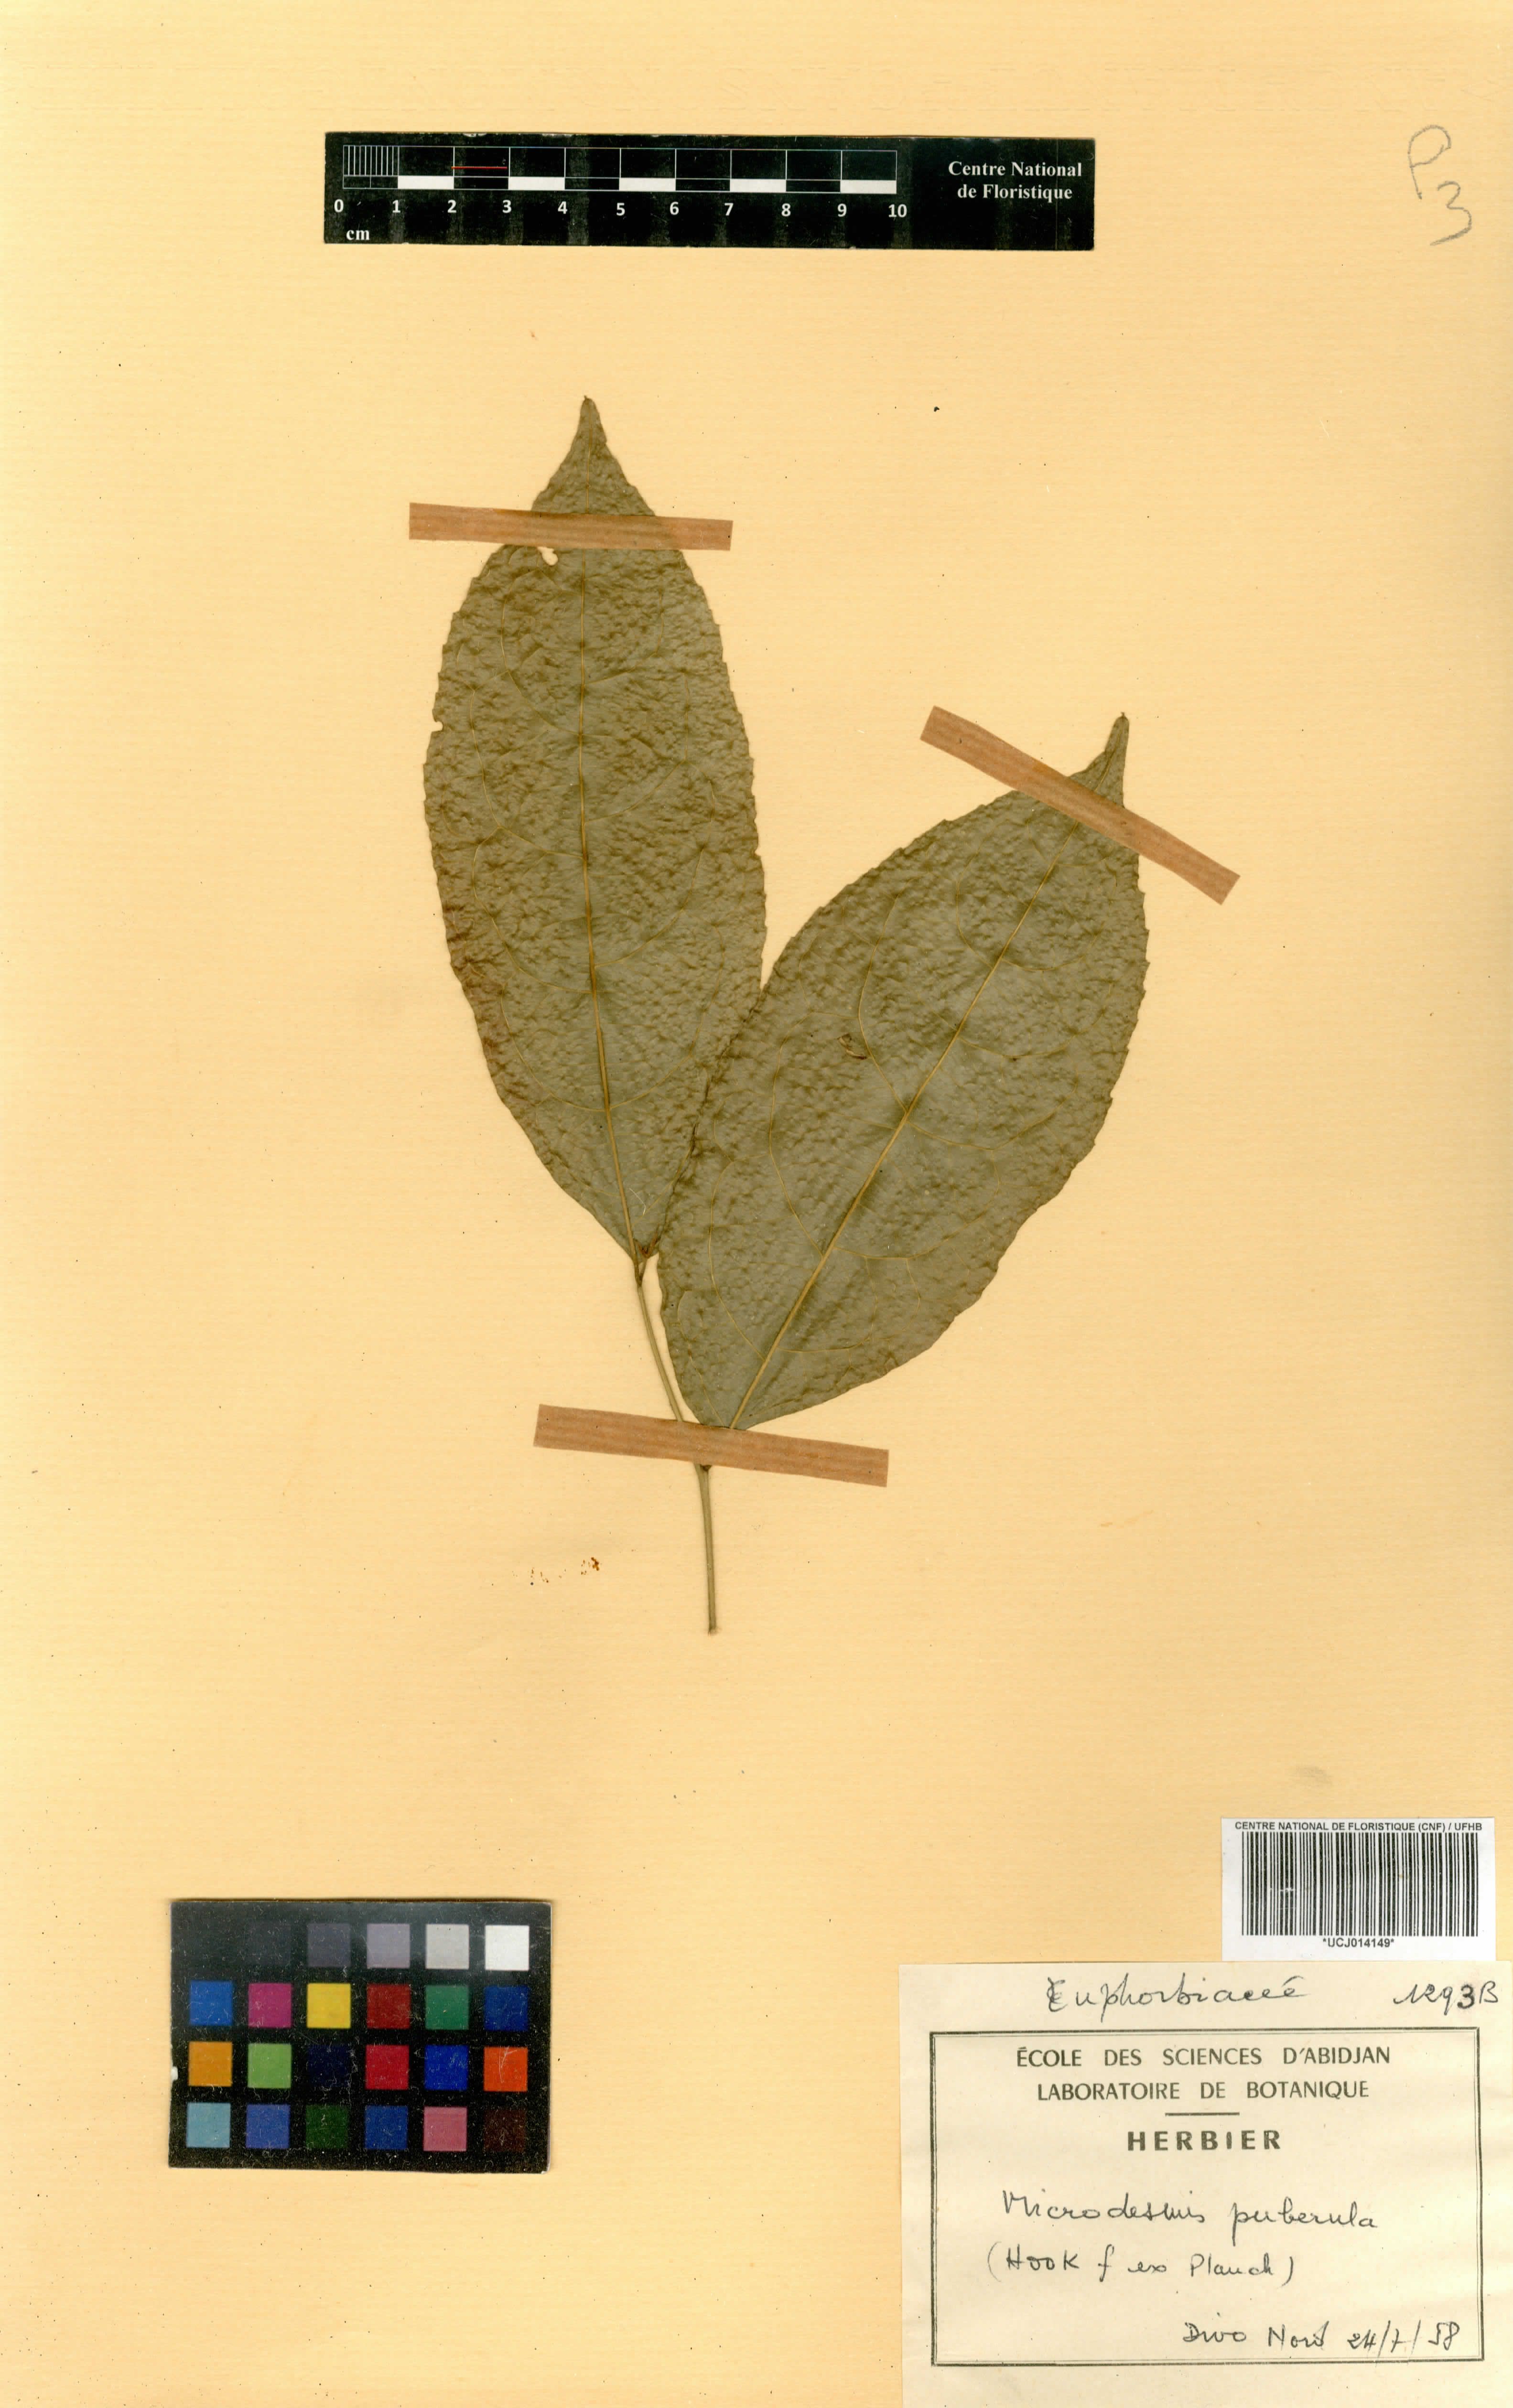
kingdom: Plantae
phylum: Tracheophyta
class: Magnoliopsida
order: Malpighiales
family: Pandaceae
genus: Microdesmis
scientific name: Microdesmis puberula
